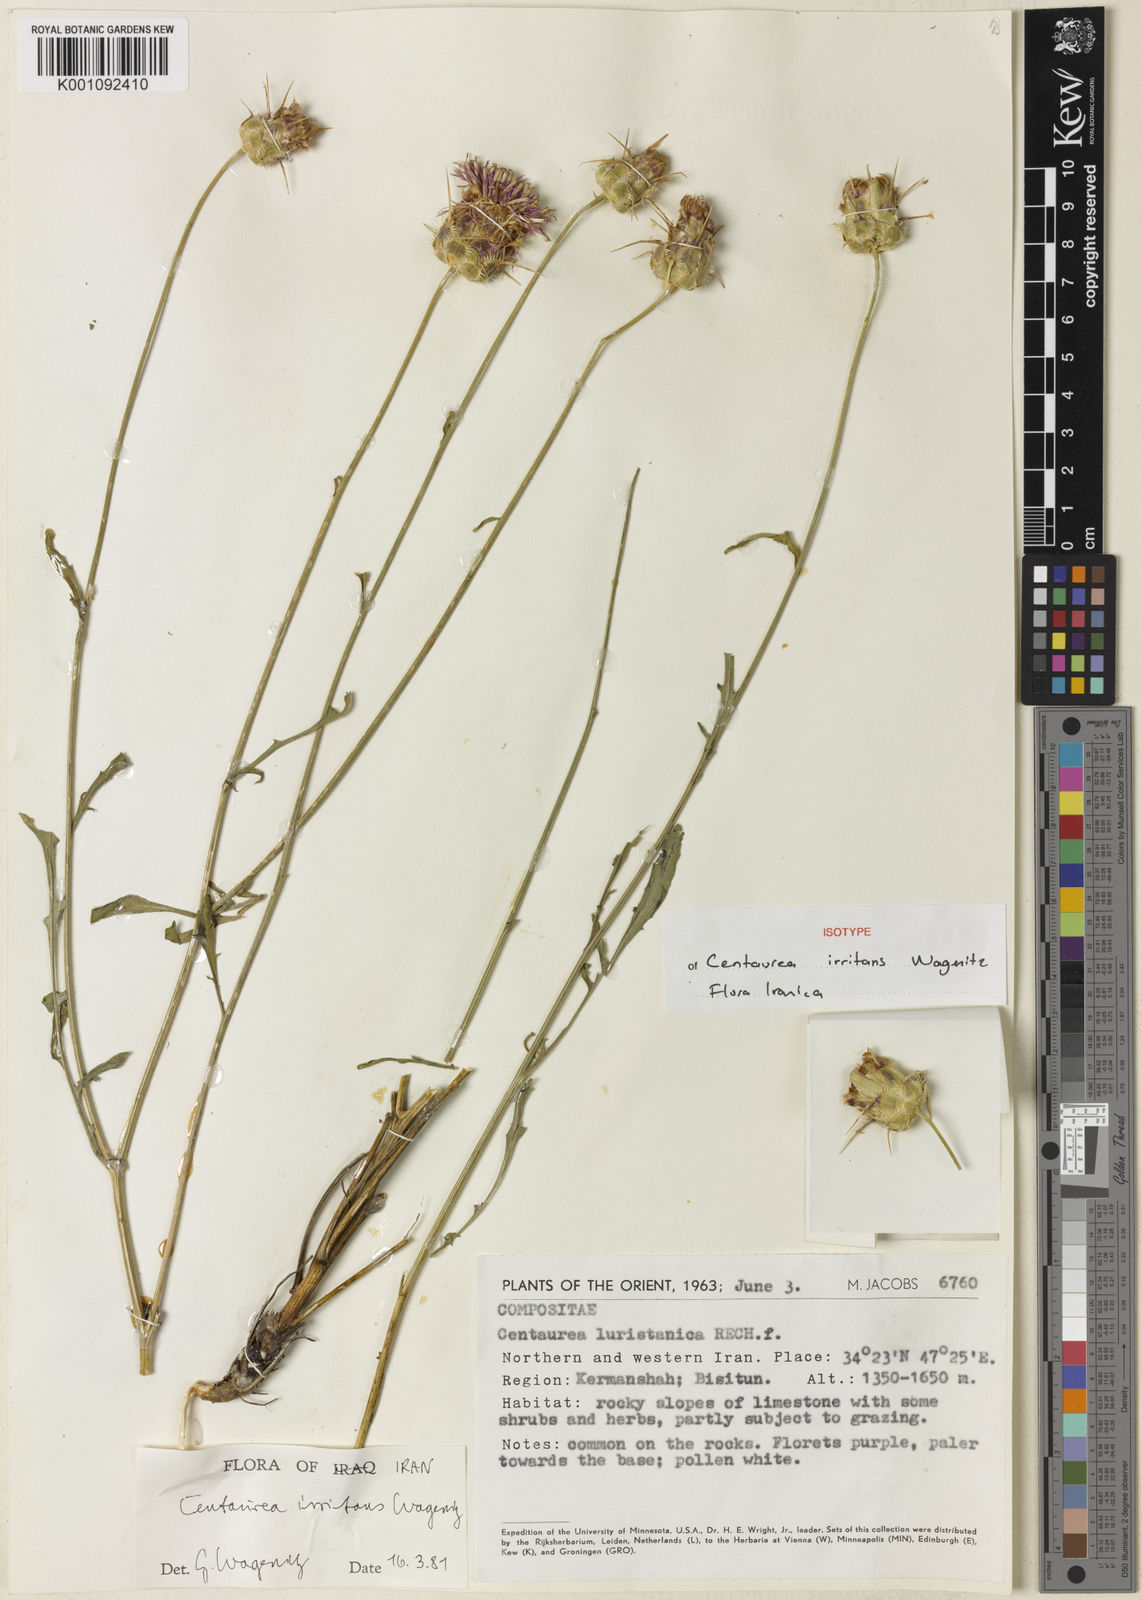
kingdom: Plantae
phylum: Tracheophyta
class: Magnoliopsida
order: Asterales
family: Asteraceae
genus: Centaurea
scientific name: Centaurea irritans
